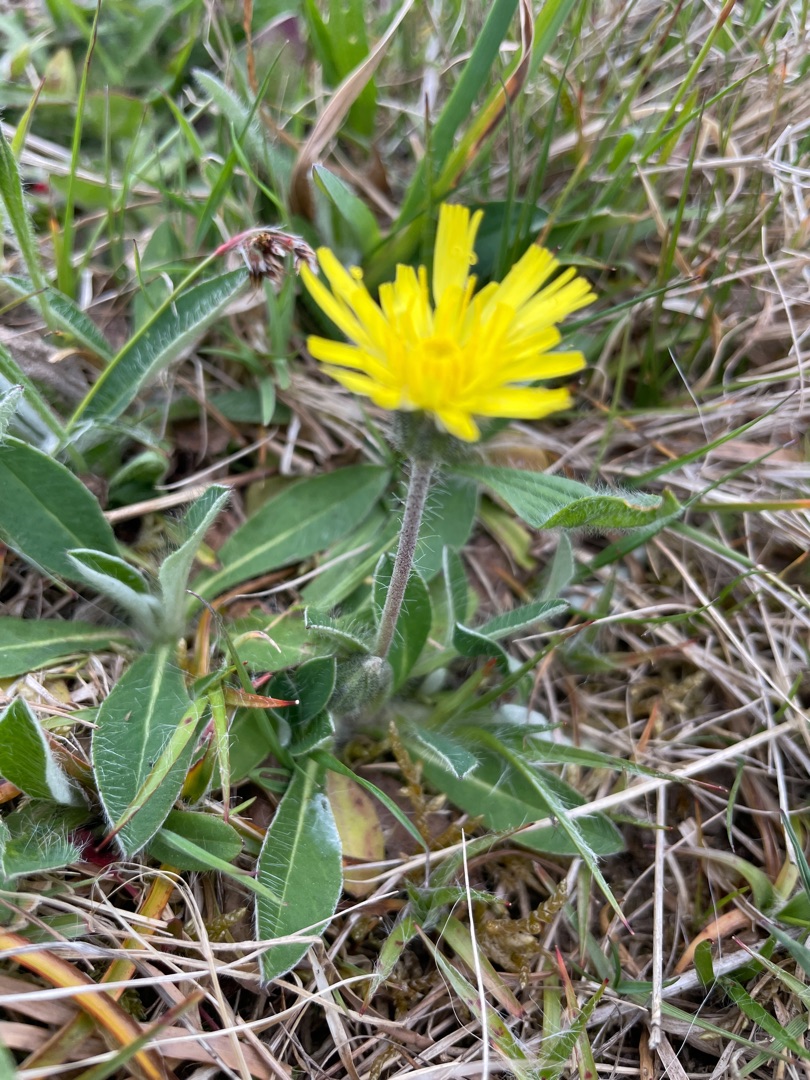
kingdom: Plantae
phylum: Tracheophyta
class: Magnoliopsida
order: Asterales
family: Asteraceae
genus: Pilosella
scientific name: Pilosella officinarum
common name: Håret høgeurt
